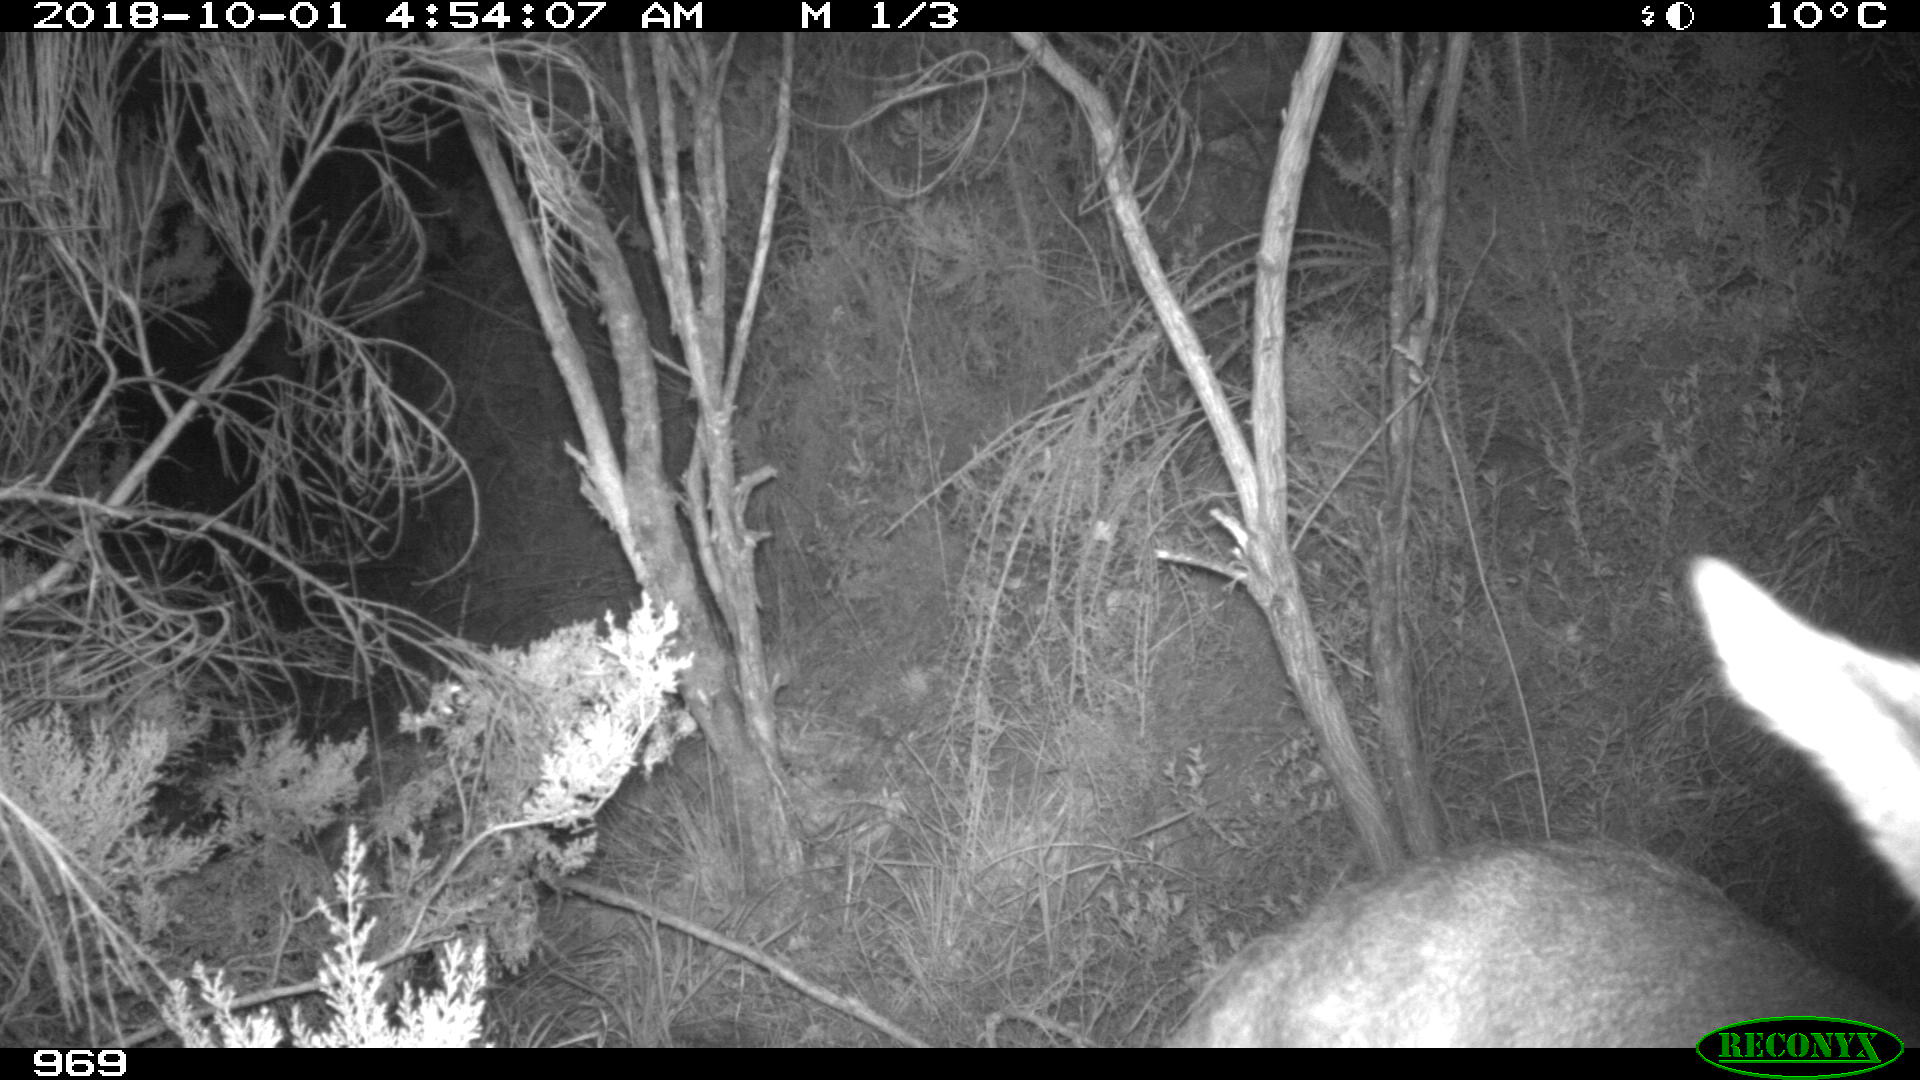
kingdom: Animalia
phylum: Chordata
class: Mammalia
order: Artiodactyla
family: Cervidae
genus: Capreolus
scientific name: Capreolus capreolus
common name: Western roe deer
